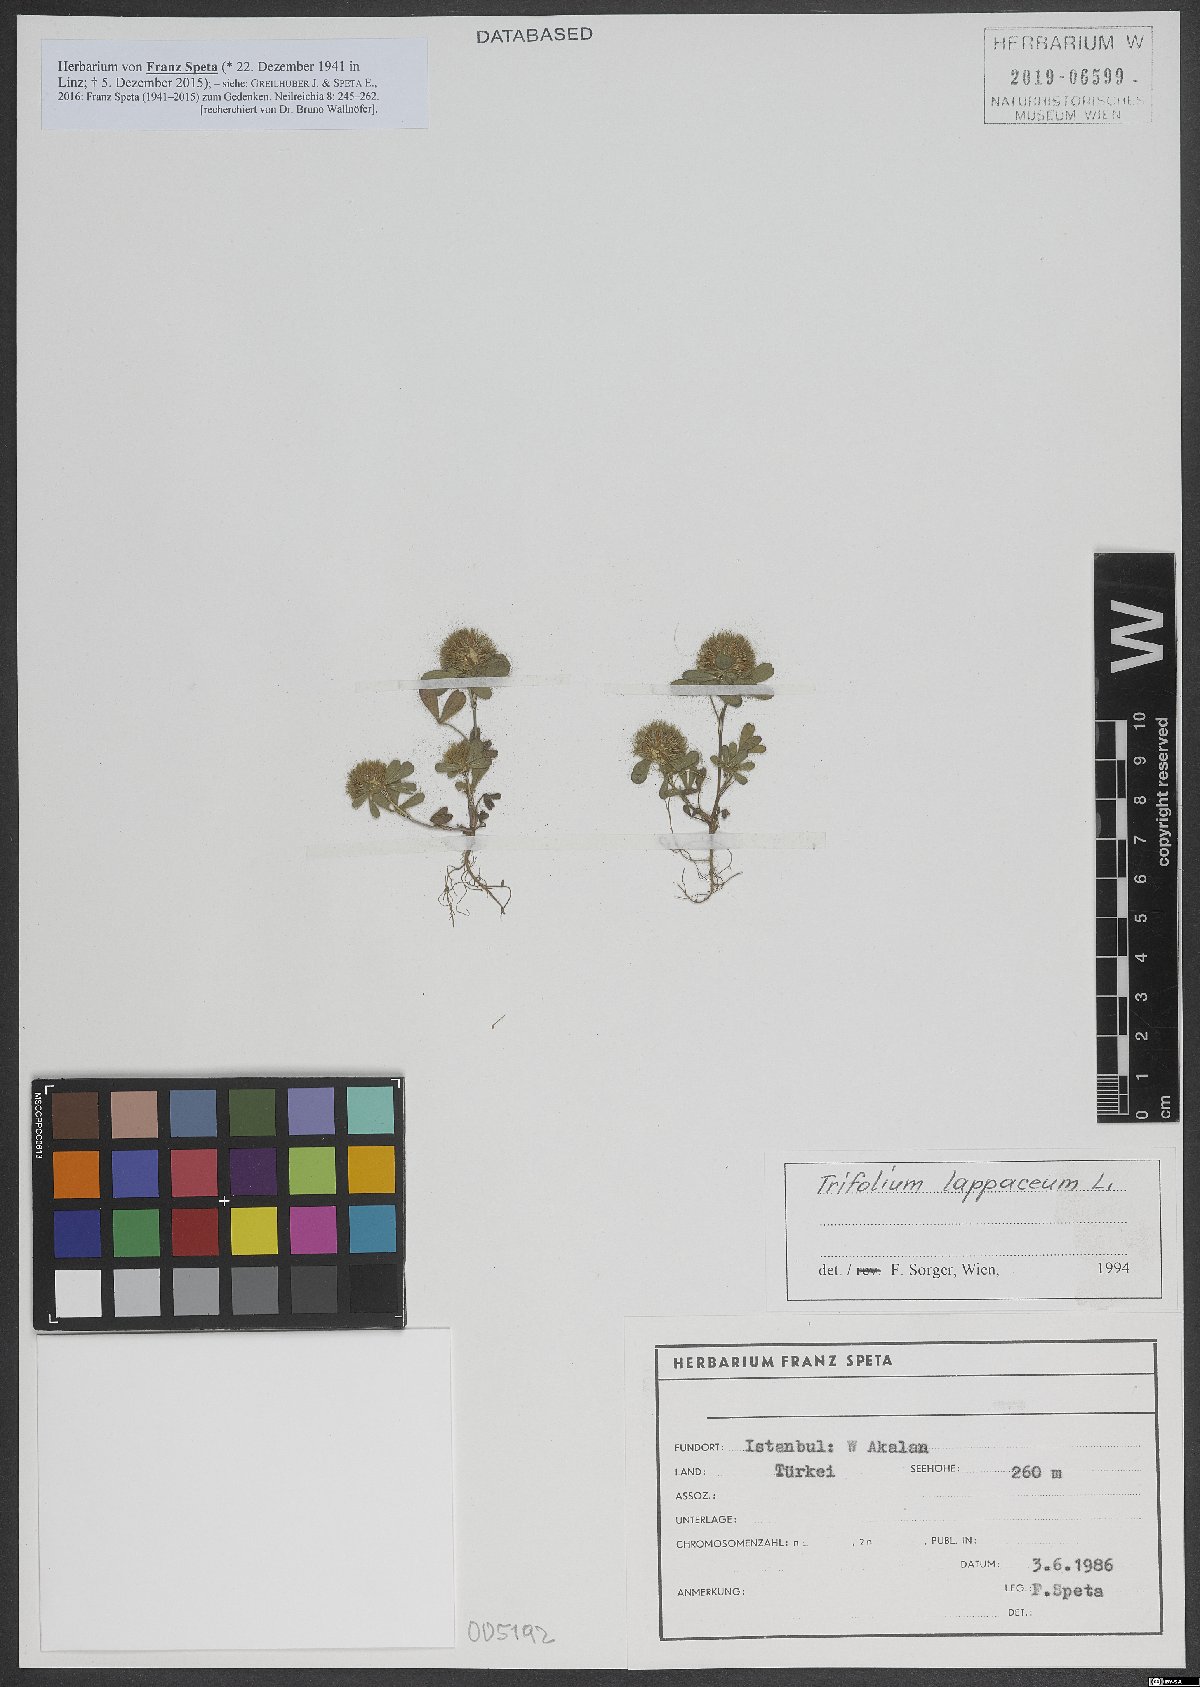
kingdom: Plantae
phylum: Tracheophyta
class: Magnoliopsida
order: Fabales
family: Fabaceae
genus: Trifolium
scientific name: Trifolium lappaceum
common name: Bur clover
